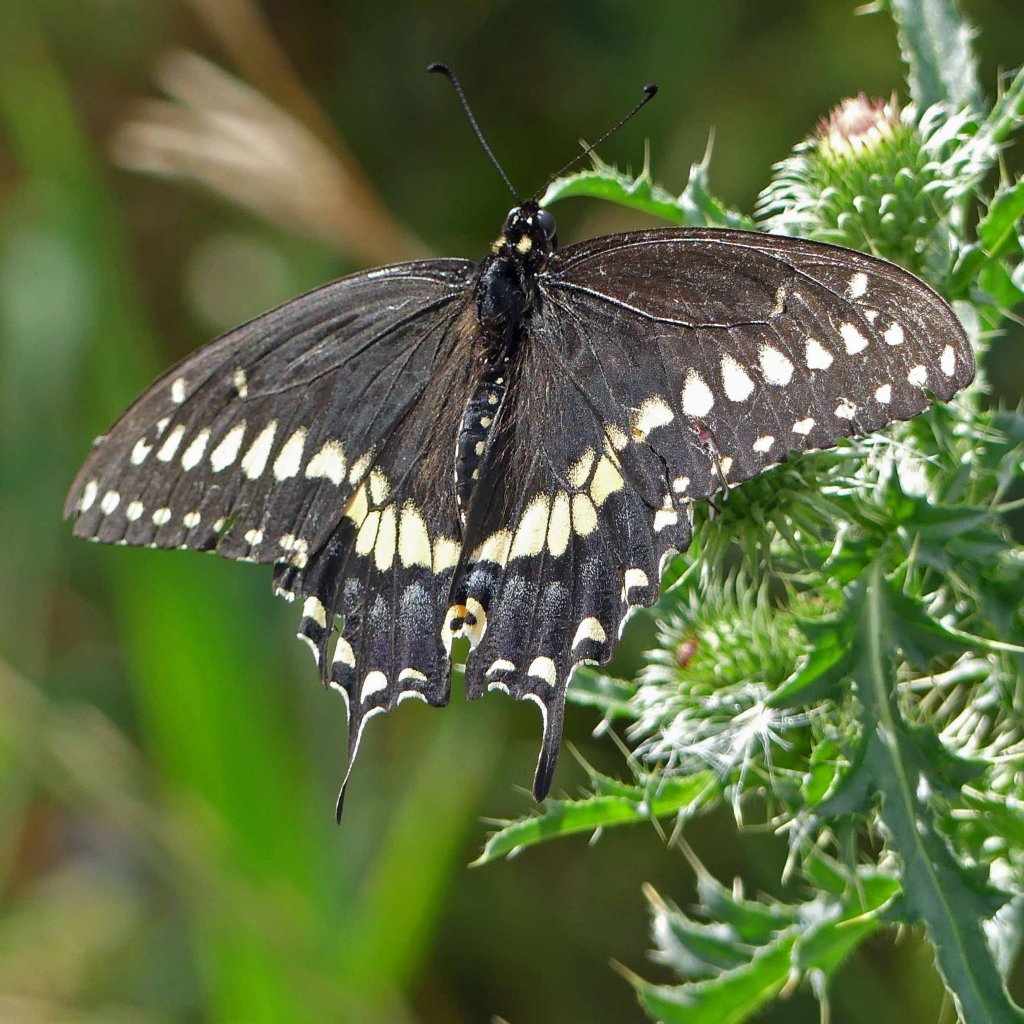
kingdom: Animalia
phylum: Arthropoda
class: Insecta
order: Lepidoptera
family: Papilionidae
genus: Papilio
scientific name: Papilio polyxenes
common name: Black Swallowtail
